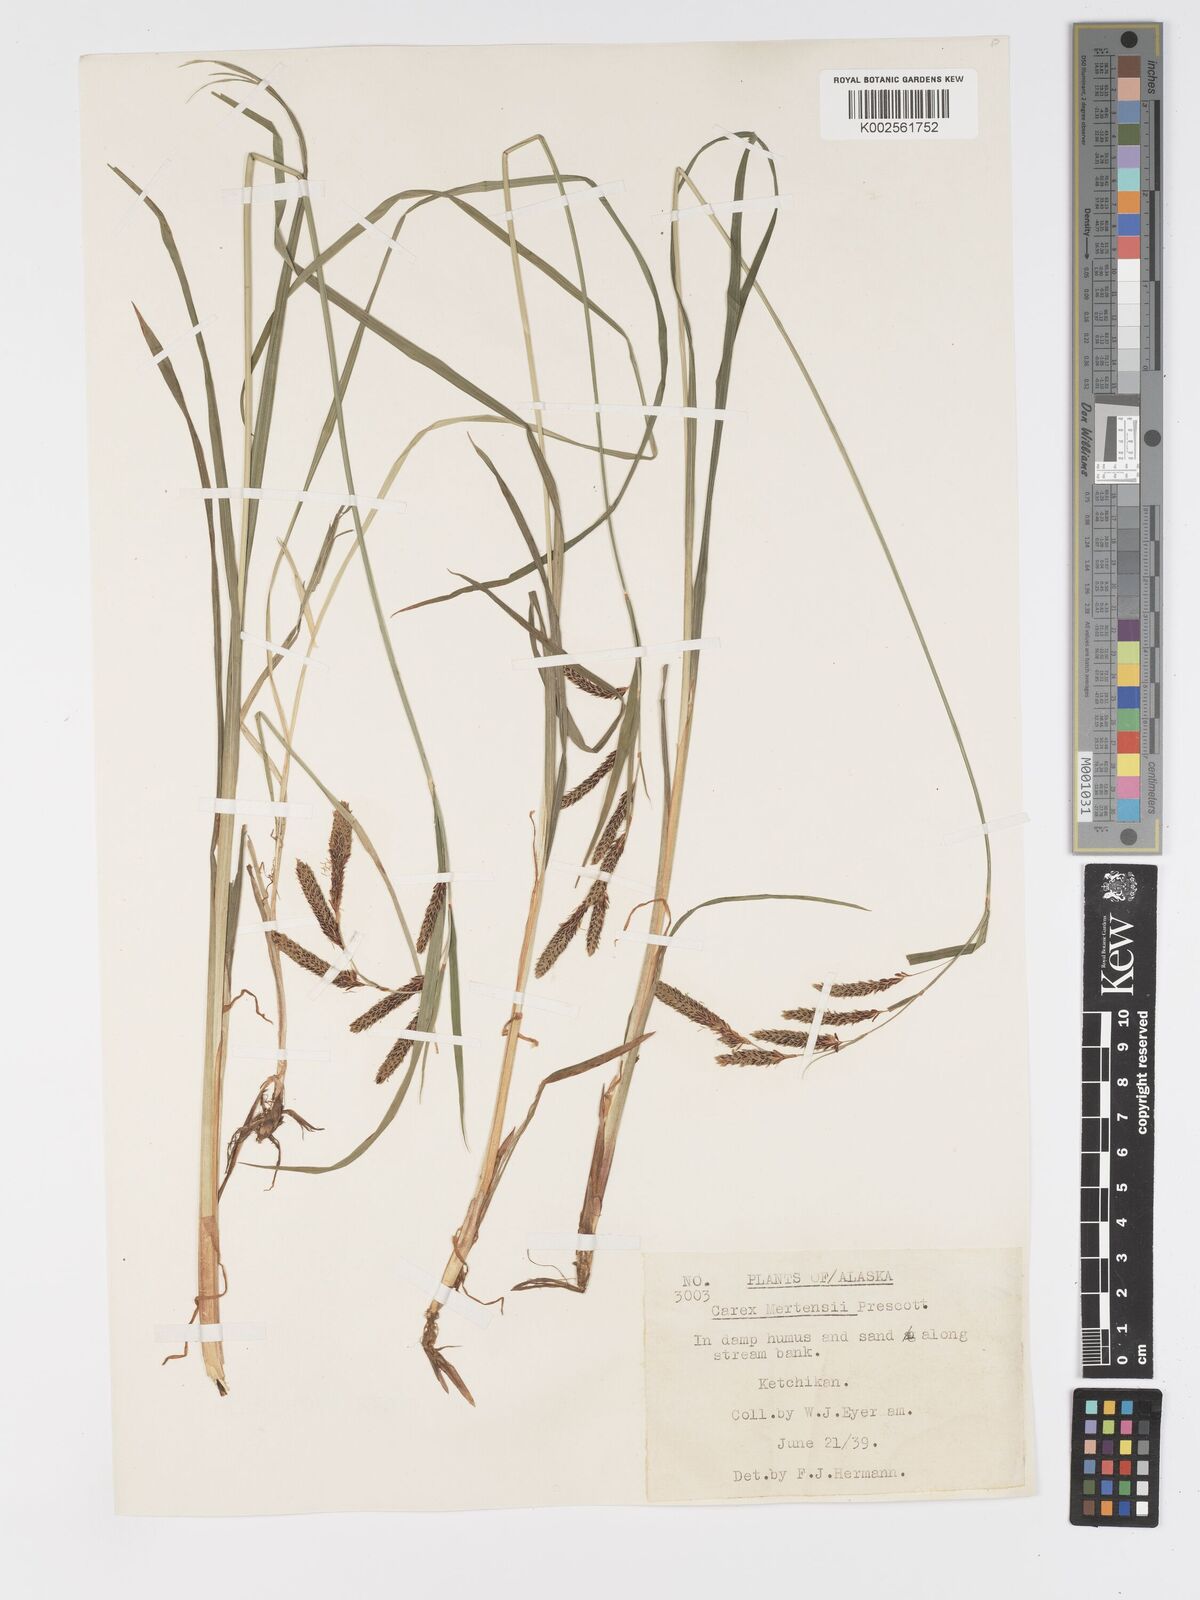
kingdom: Plantae
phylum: Tracheophyta
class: Liliopsida
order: Poales
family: Cyperaceae
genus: Carex
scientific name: Carex mertensii
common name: Mertens' sedge
